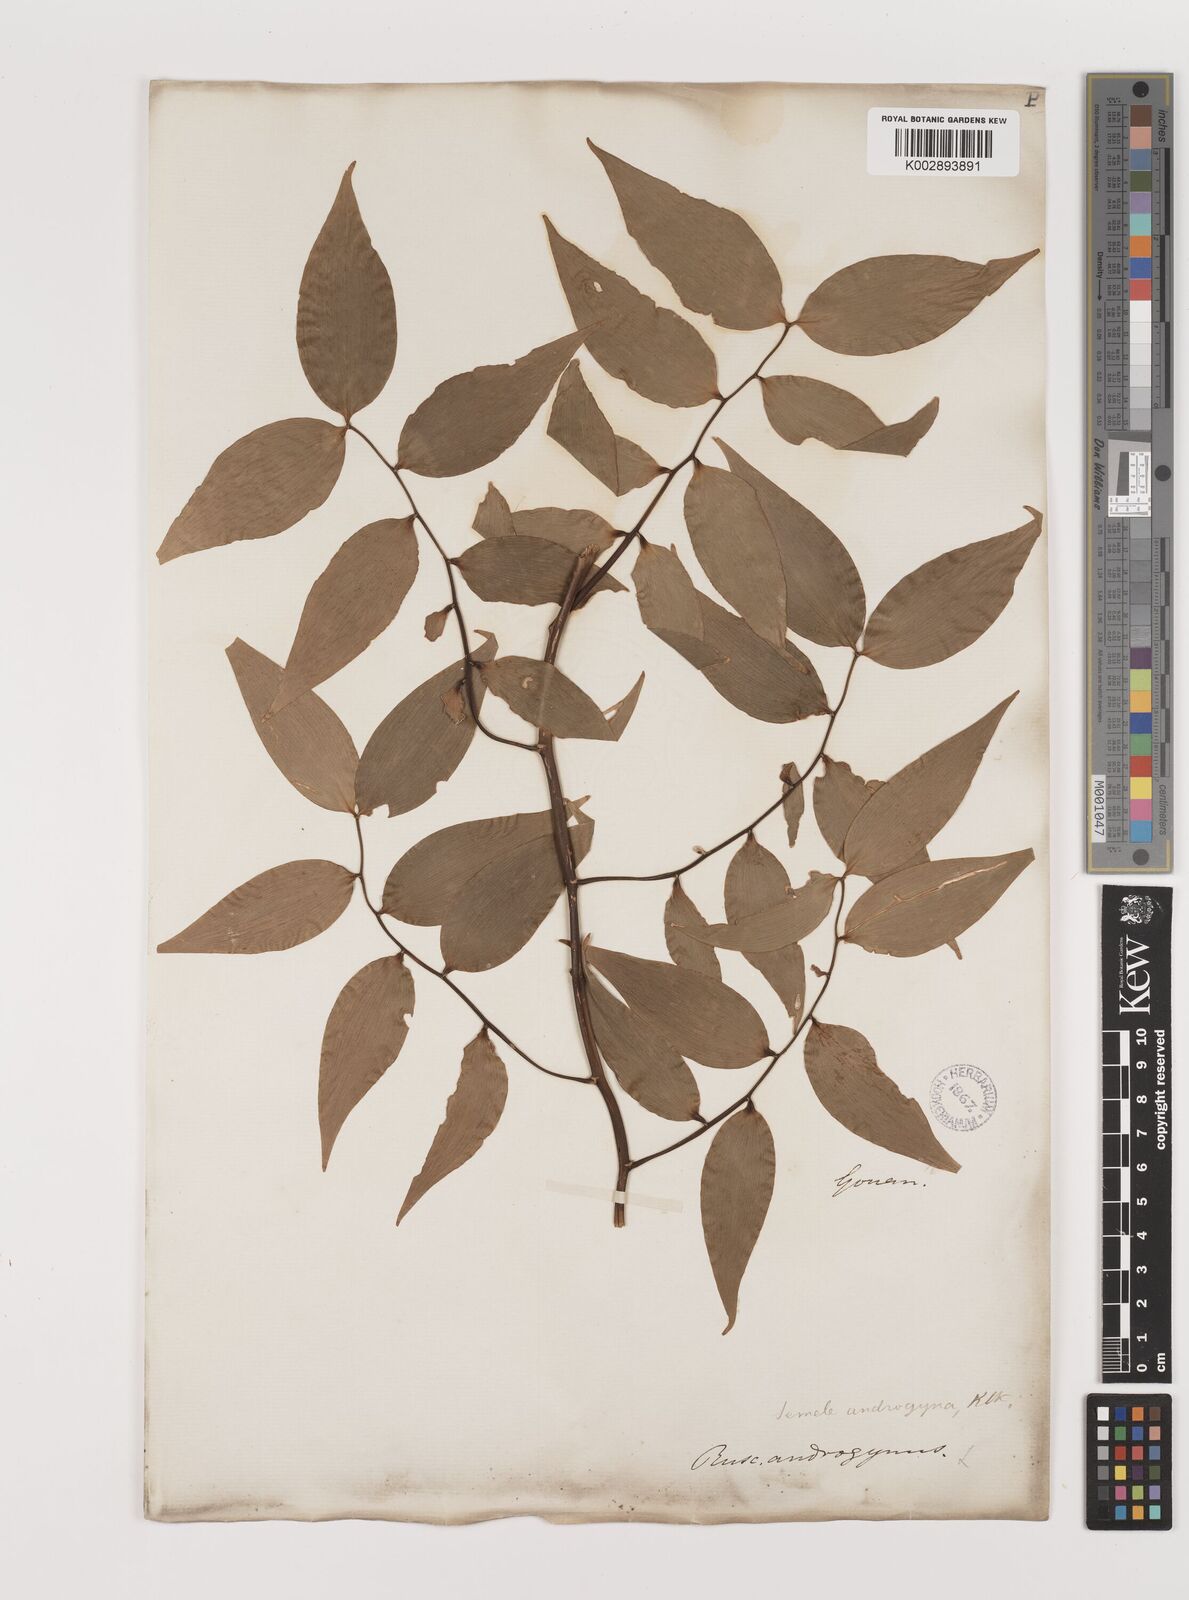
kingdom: Plantae
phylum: Tracheophyta
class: Liliopsida
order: Asparagales
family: Asparagaceae
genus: Semele
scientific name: Semele androgyna
